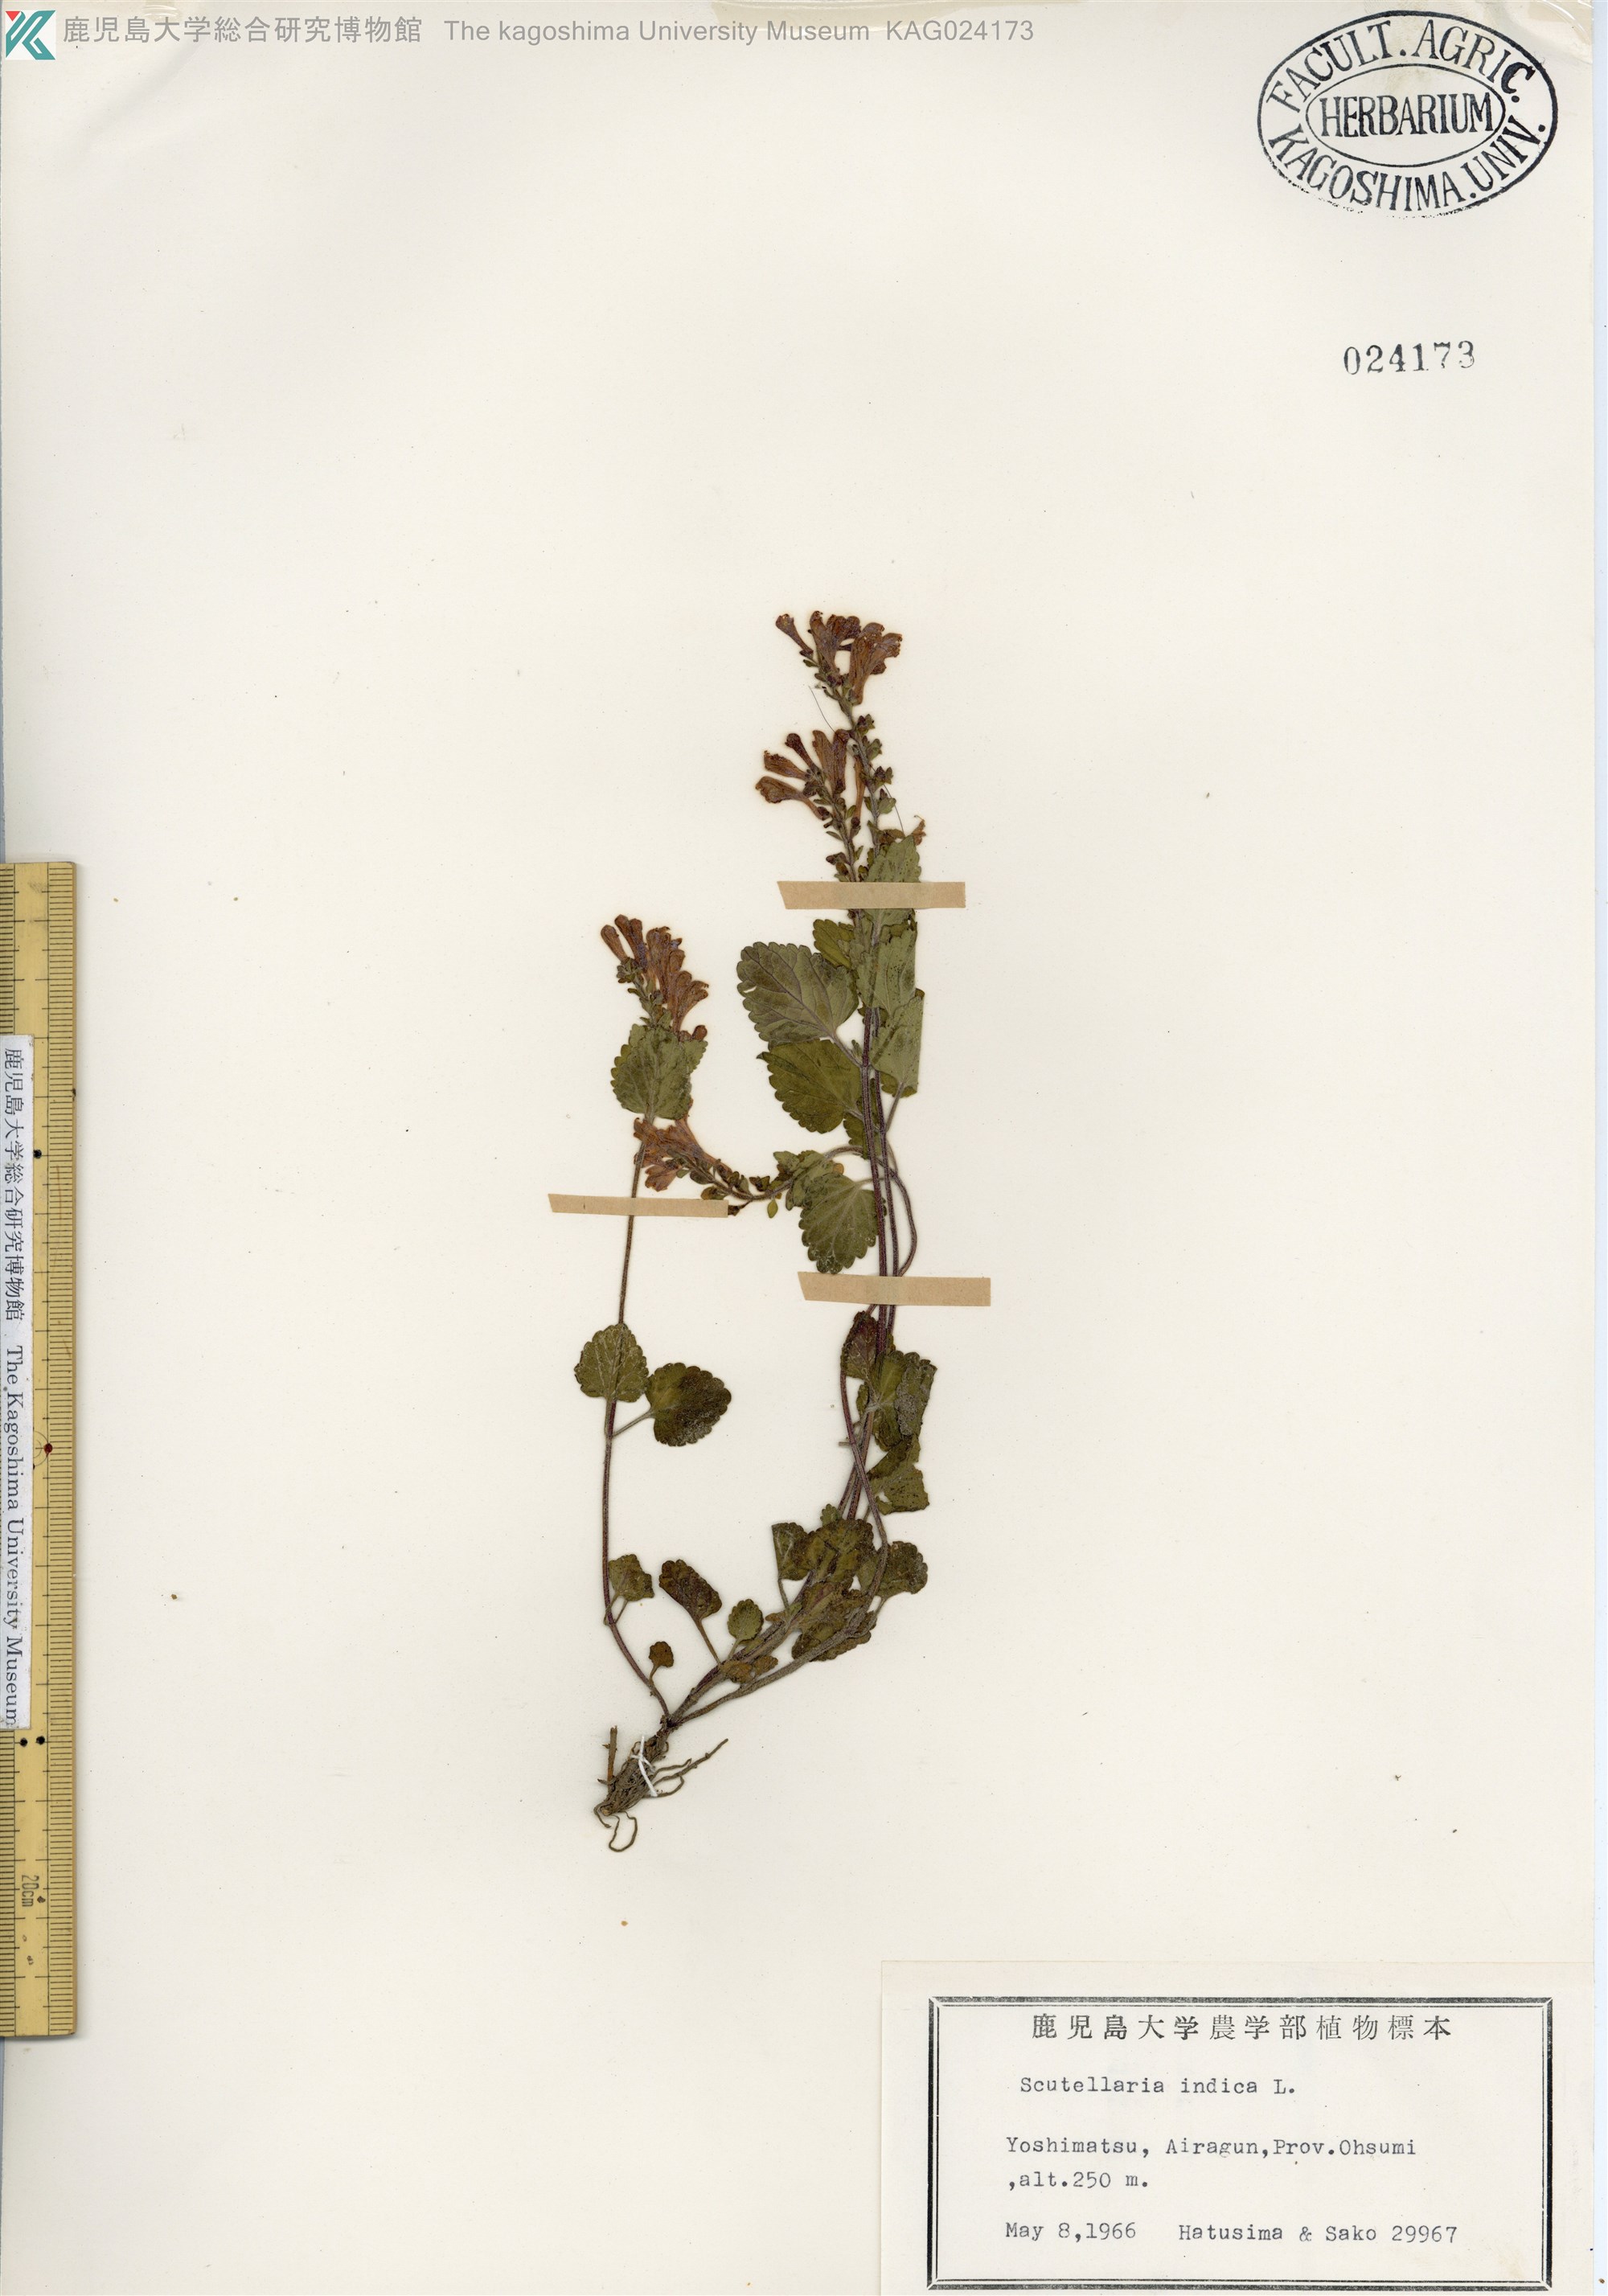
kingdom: Plantae
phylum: Tracheophyta
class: Magnoliopsida
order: Lamiales
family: Lamiaceae
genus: Scutellaria
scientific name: Scutellaria indica
